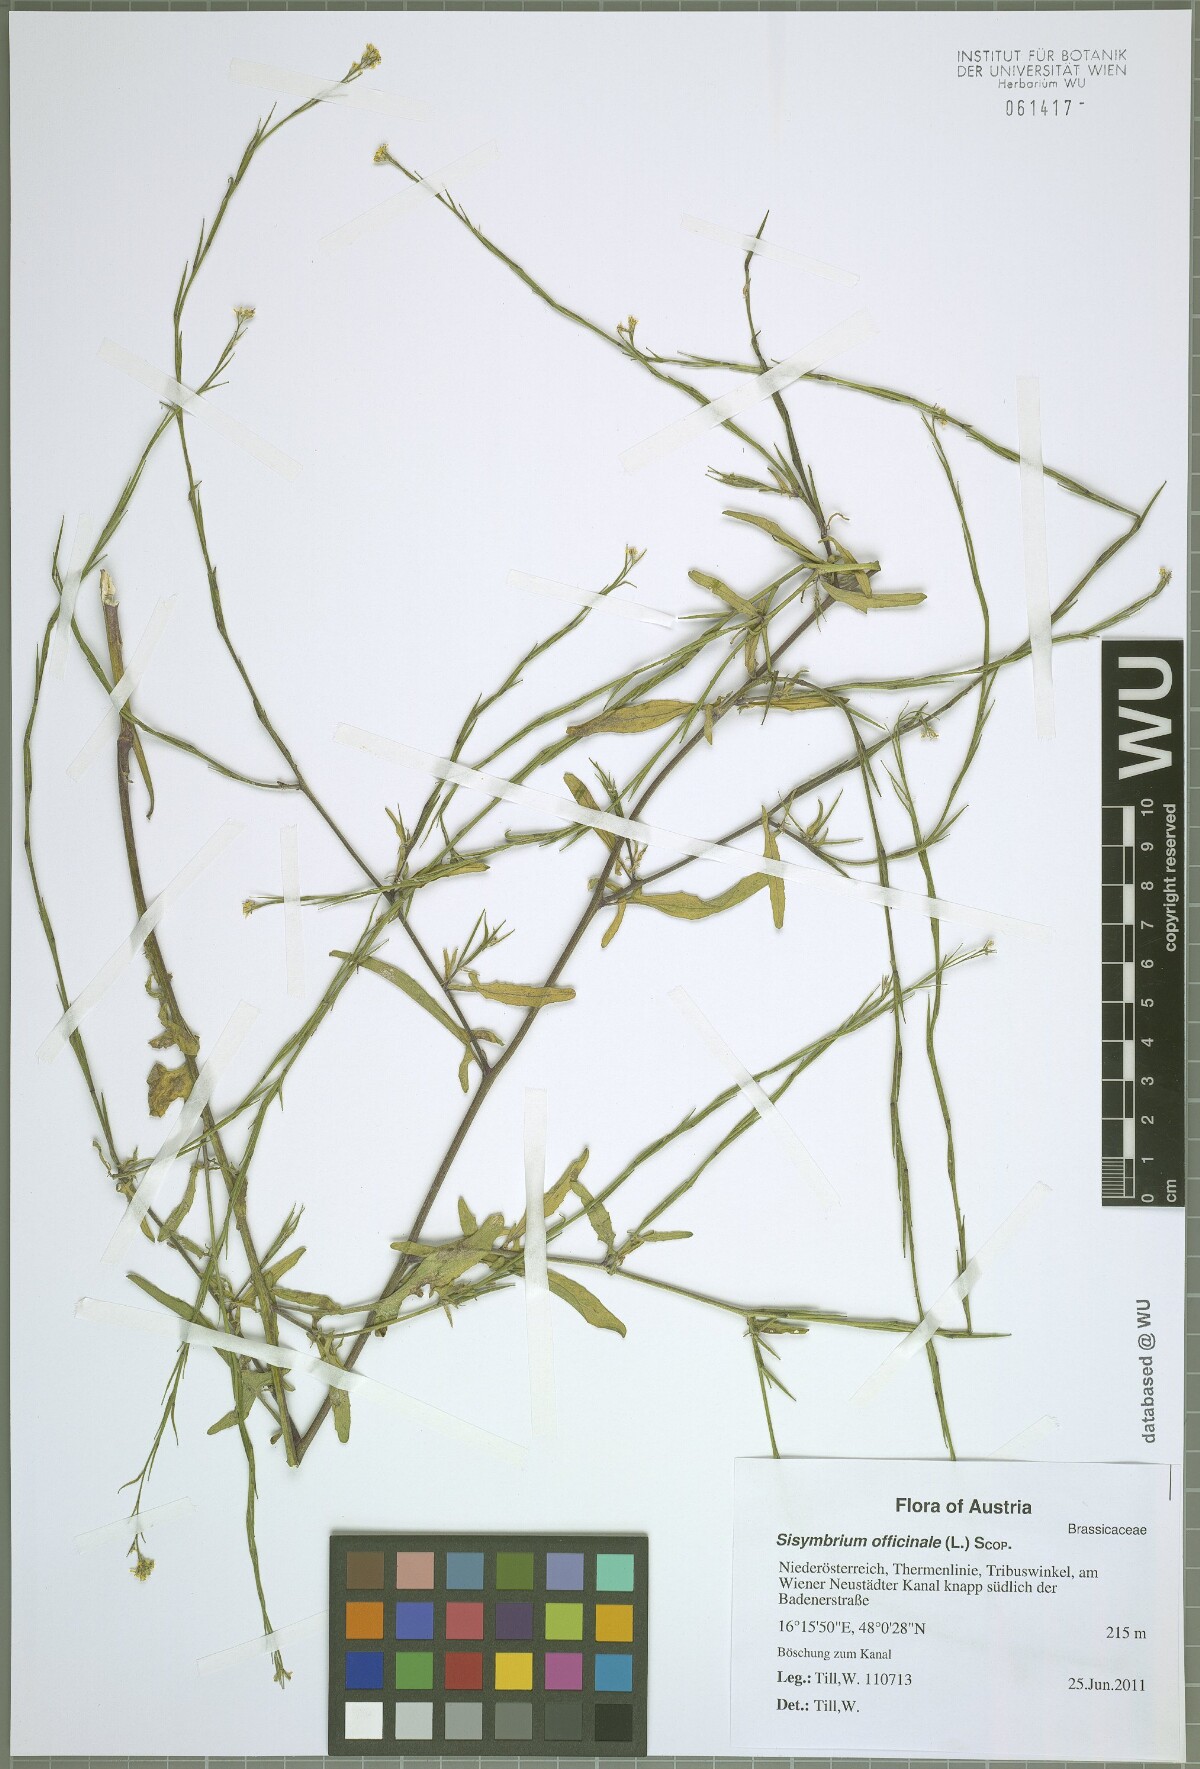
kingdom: Plantae
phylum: Tracheophyta
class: Magnoliopsida
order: Brassicales
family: Brassicaceae
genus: Sisymbrium
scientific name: Sisymbrium officinale
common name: Hedge mustard
